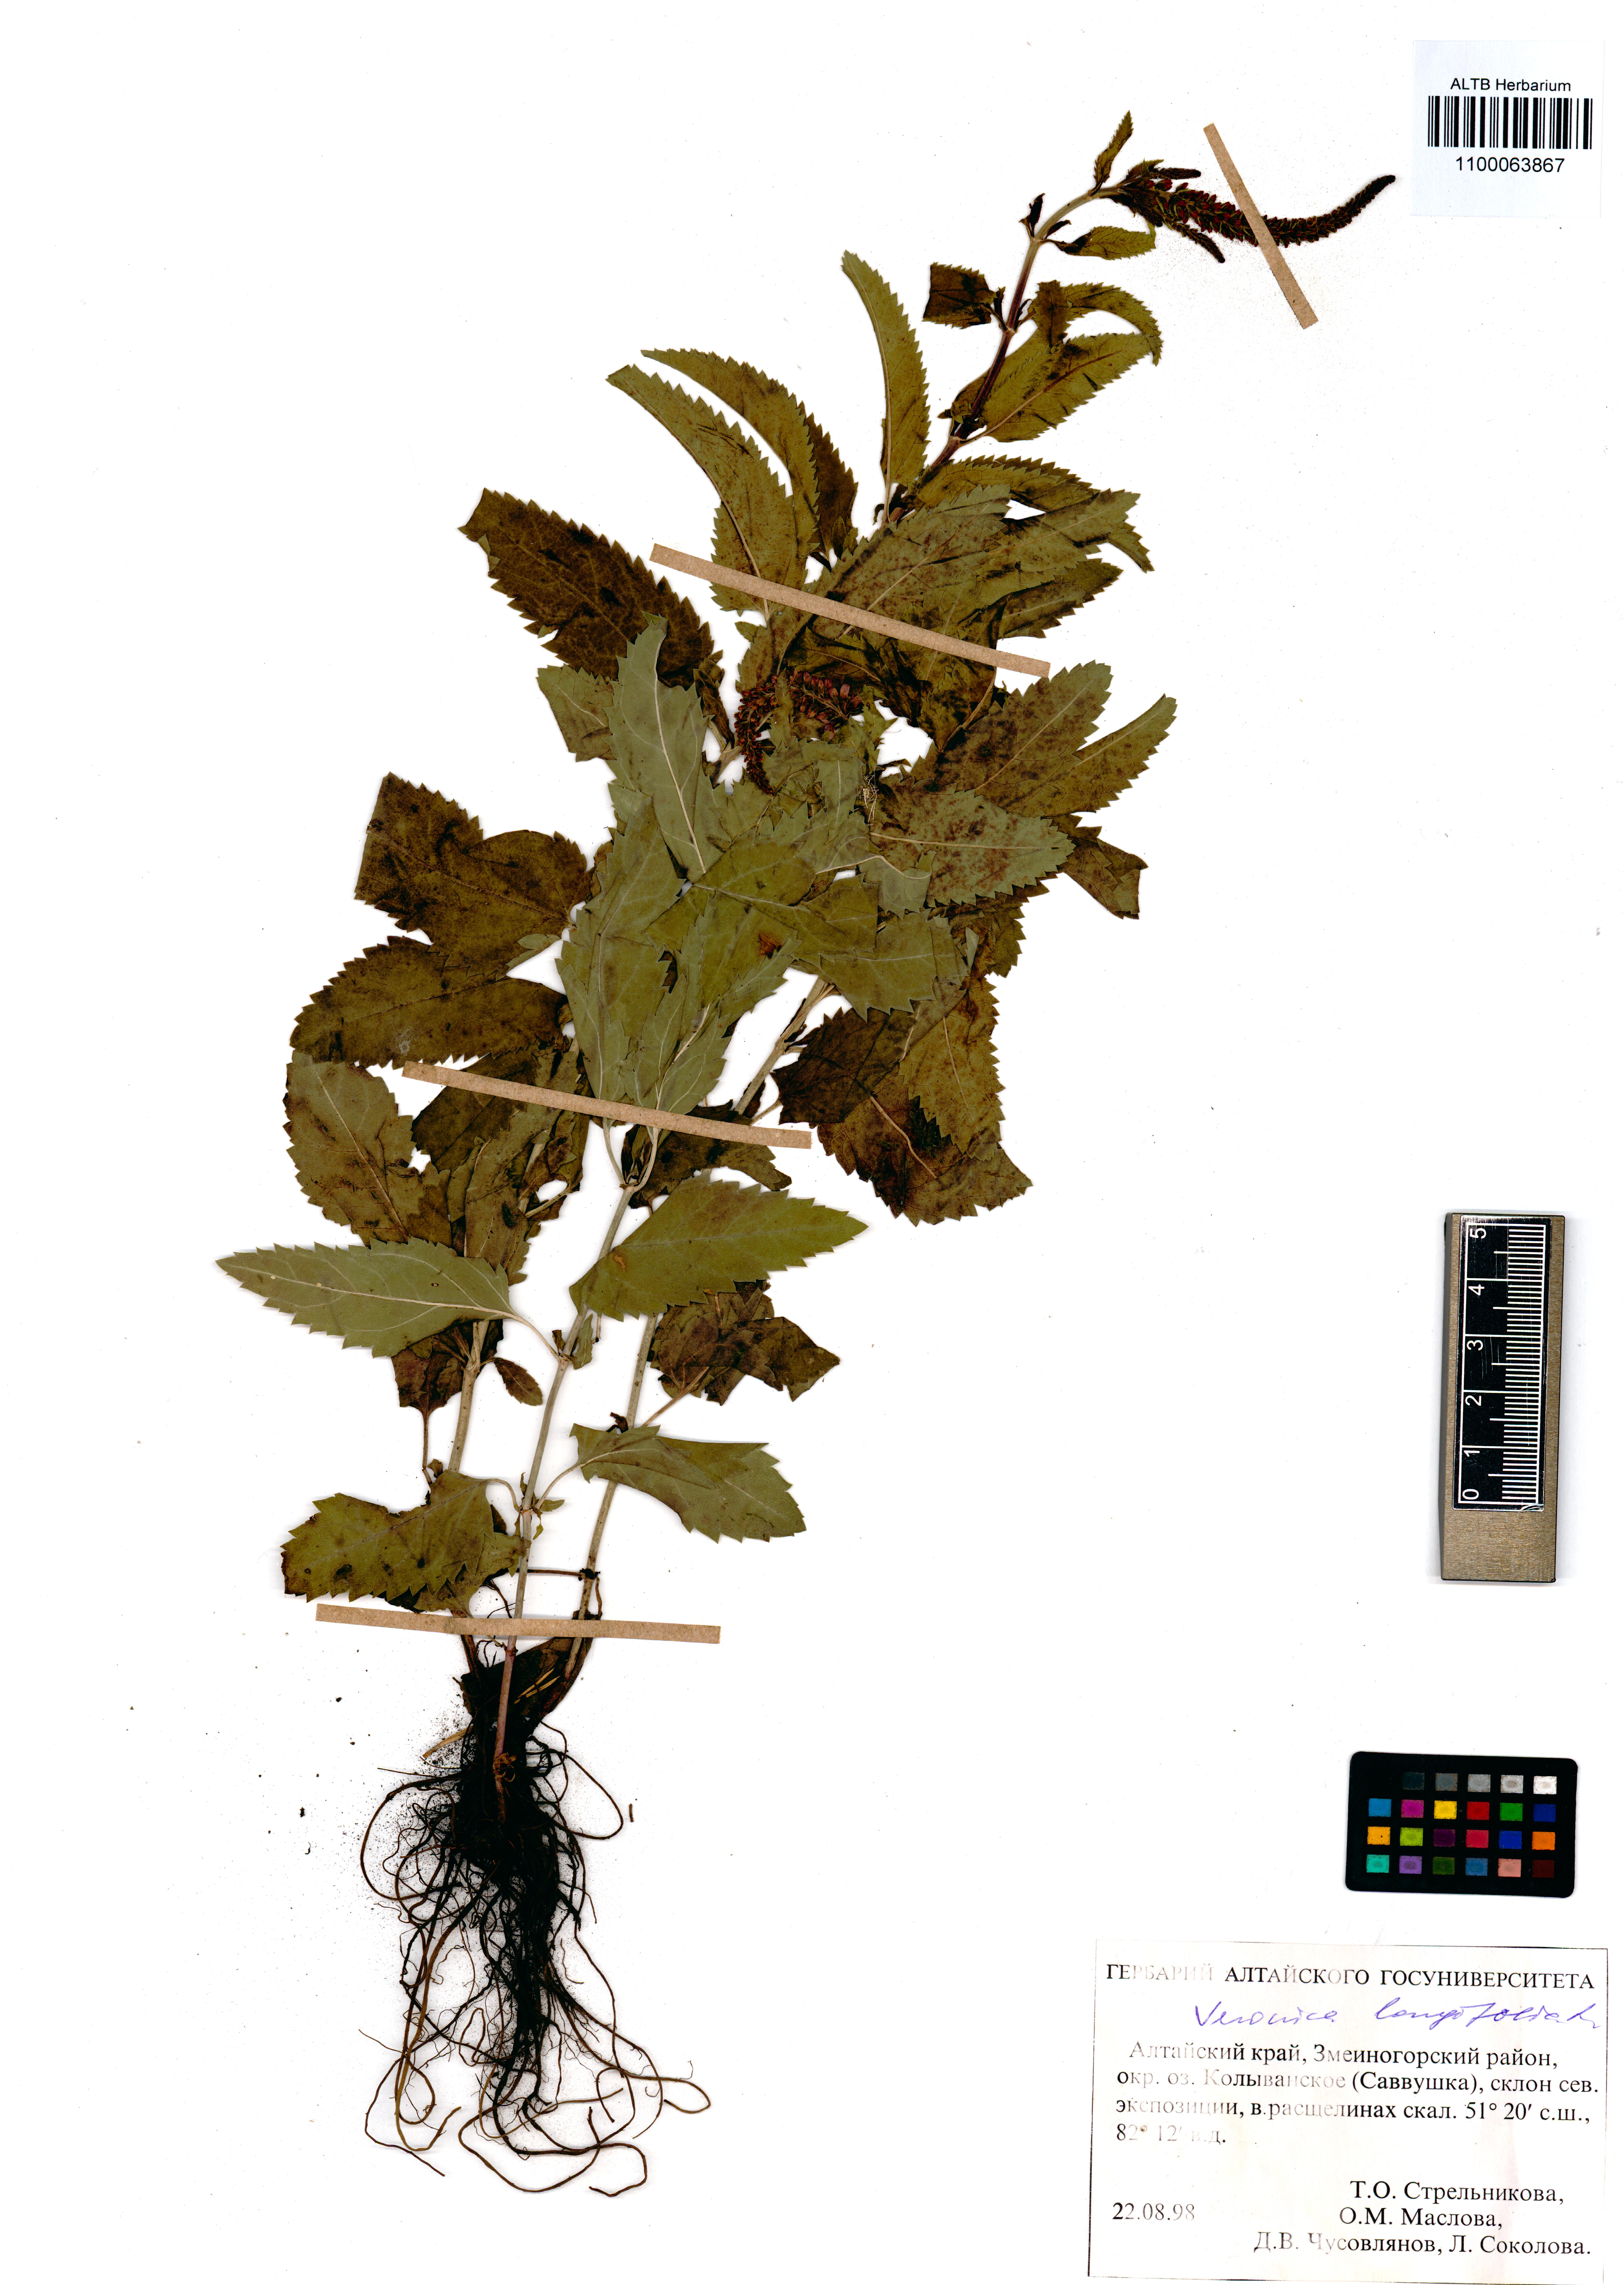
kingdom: Plantae
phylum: Tracheophyta
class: Magnoliopsida
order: Lamiales
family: Plantaginaceae
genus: Veronica
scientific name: Veronica longifolia
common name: Garden speedwell
